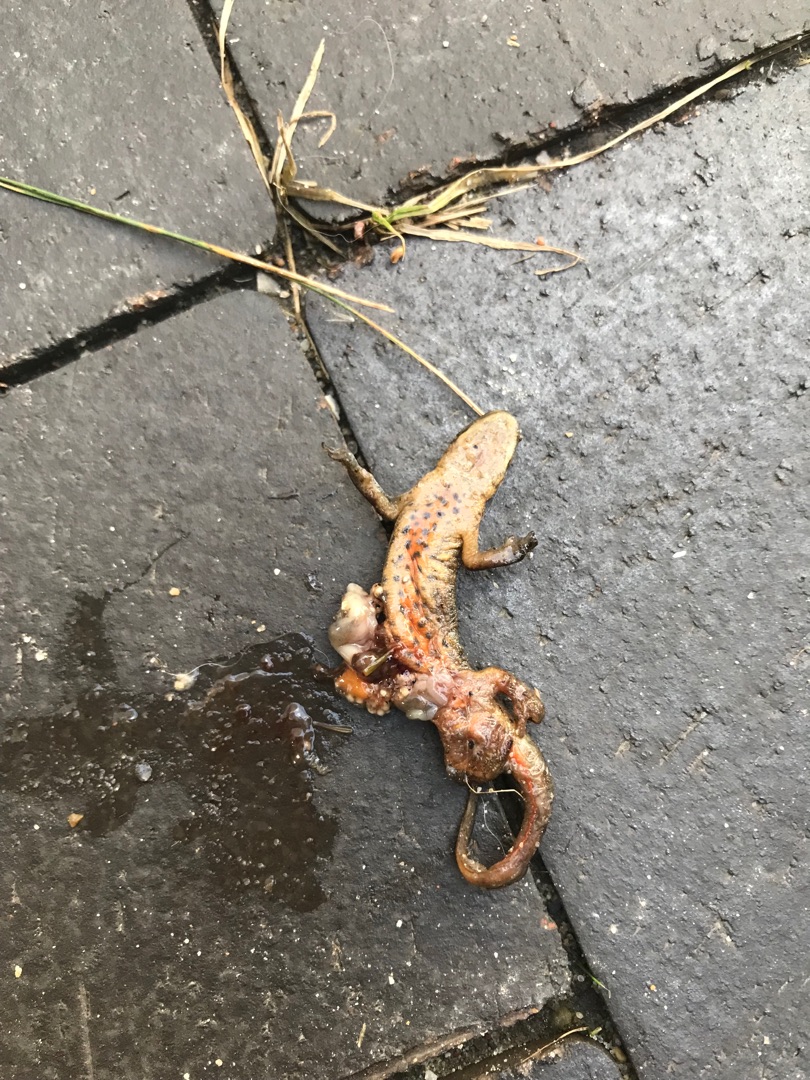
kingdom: Animalia
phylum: Chordata
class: Amphibia
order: Caudata
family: Salamandridae
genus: Lissotriton
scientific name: Lissotriton vulgaris
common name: Lille vandsalamander
